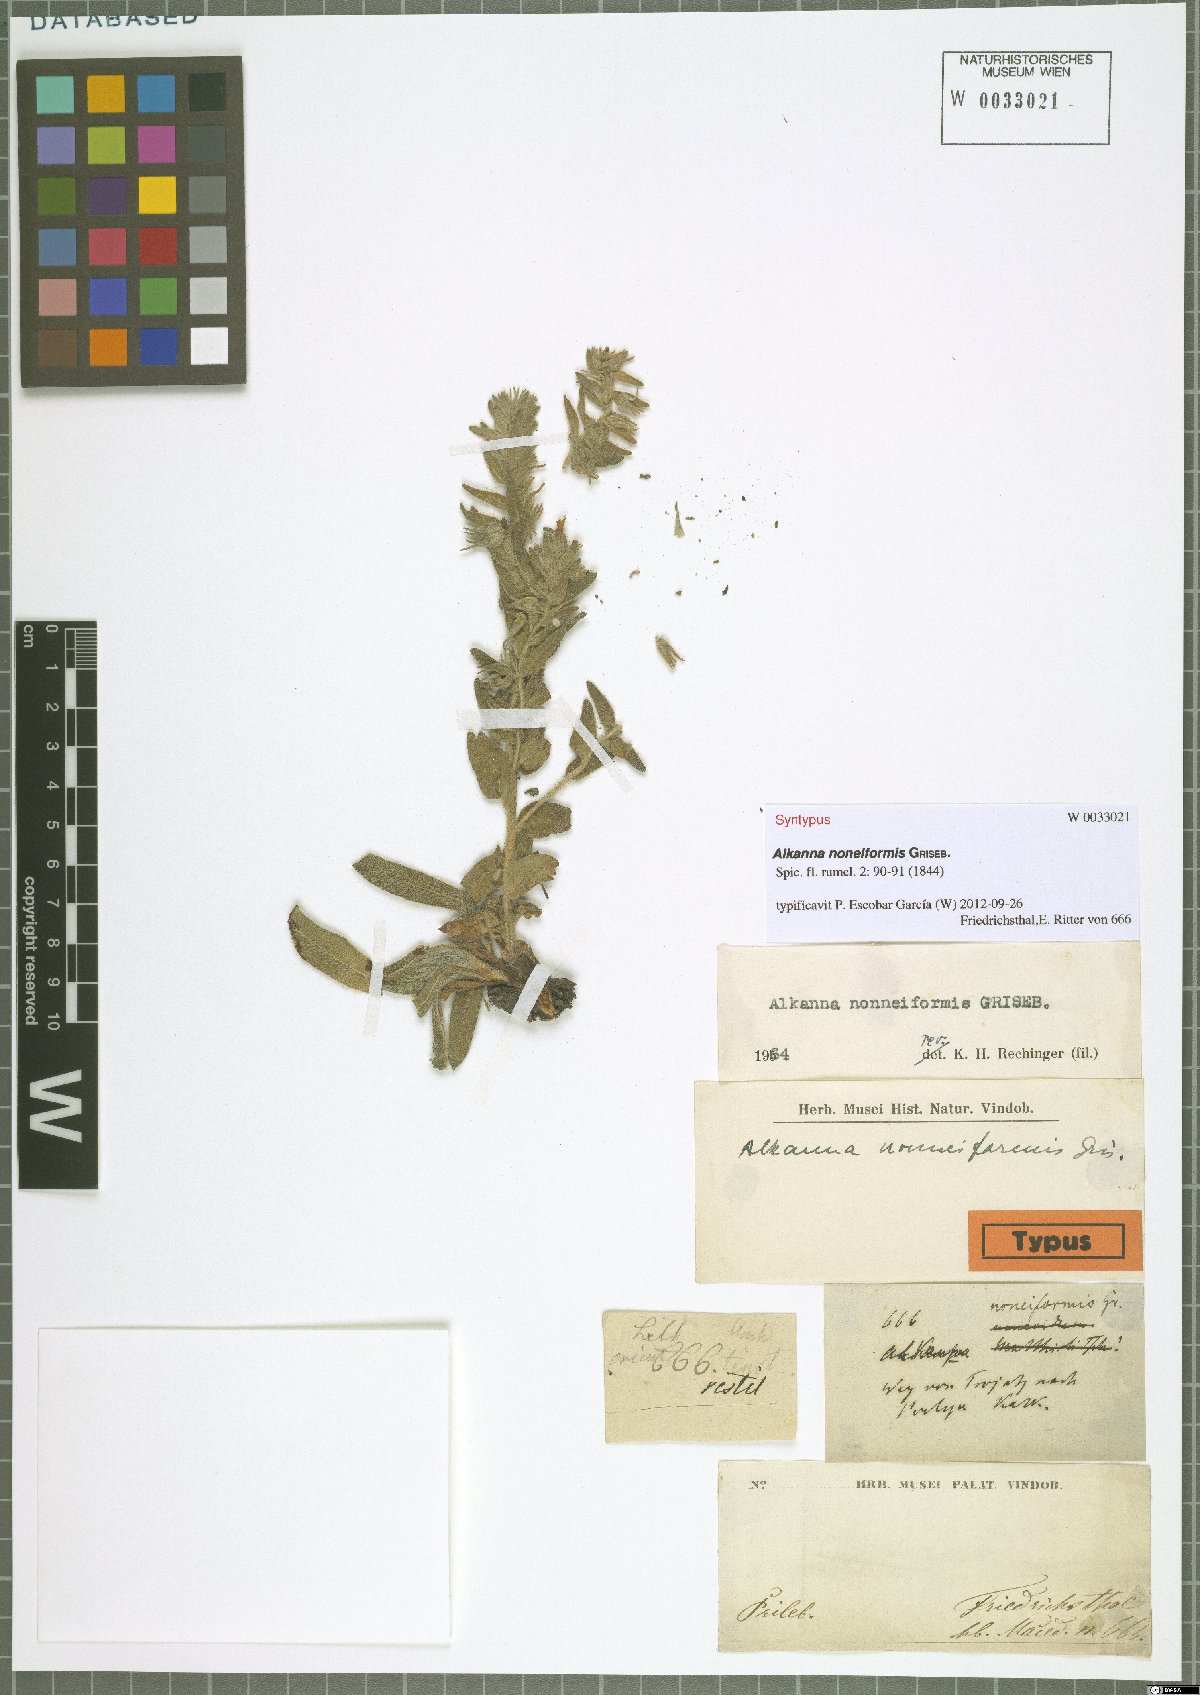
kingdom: Plantae
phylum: Tracheophyta
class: Magnoliopsida
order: Boraginales
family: Boraginaceae
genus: Alkanna
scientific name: Alkanna noneiformis
